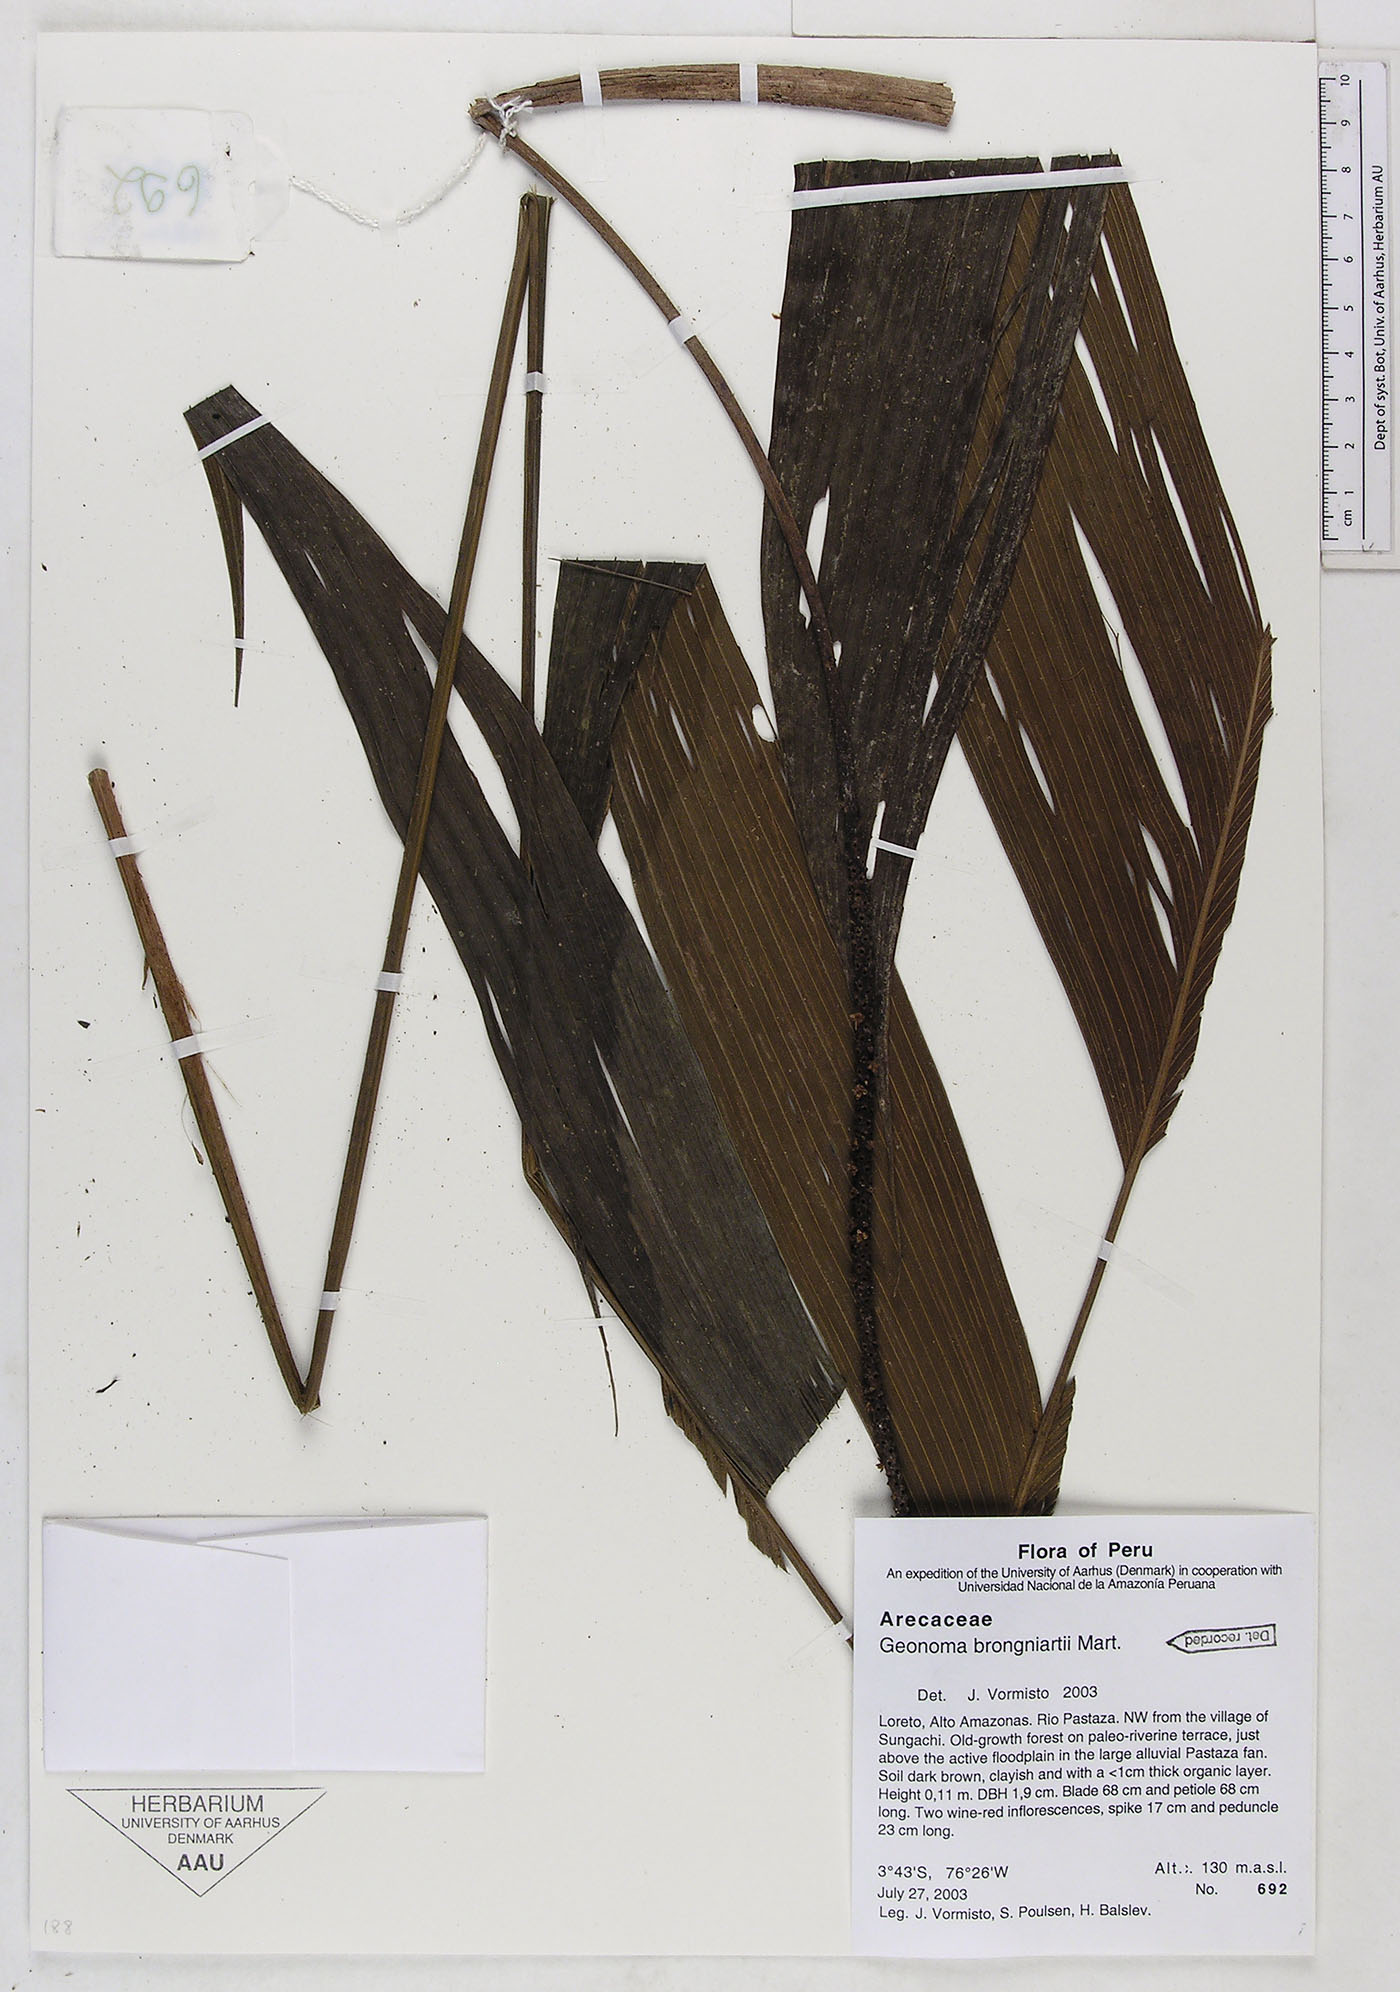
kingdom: Plantae
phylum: Tracheophyta
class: Liliopsida
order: Arecales
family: Arecaceae
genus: Geonoma
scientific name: Geonoma brongniartii
